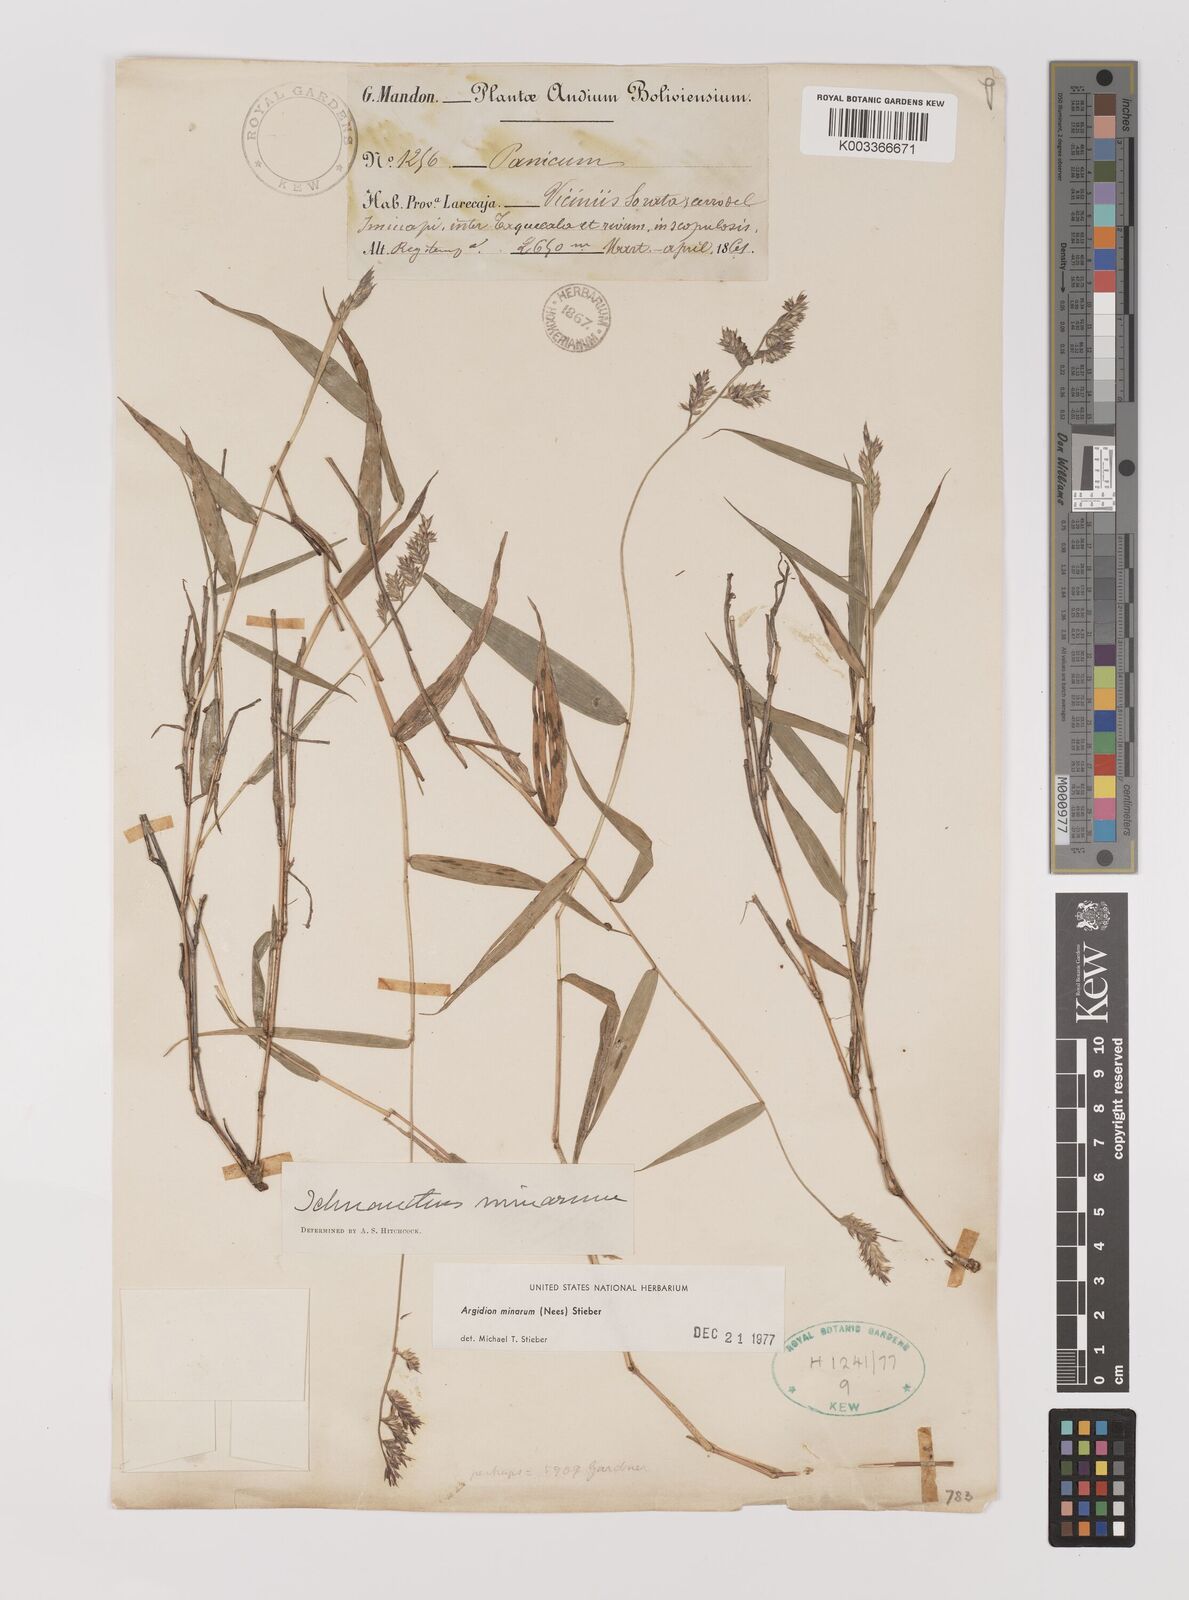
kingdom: Plantae
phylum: Tracheophyta
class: Liliopsida
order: Poales
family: Poaceae
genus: Oedochloa
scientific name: Oedochloa minarum
